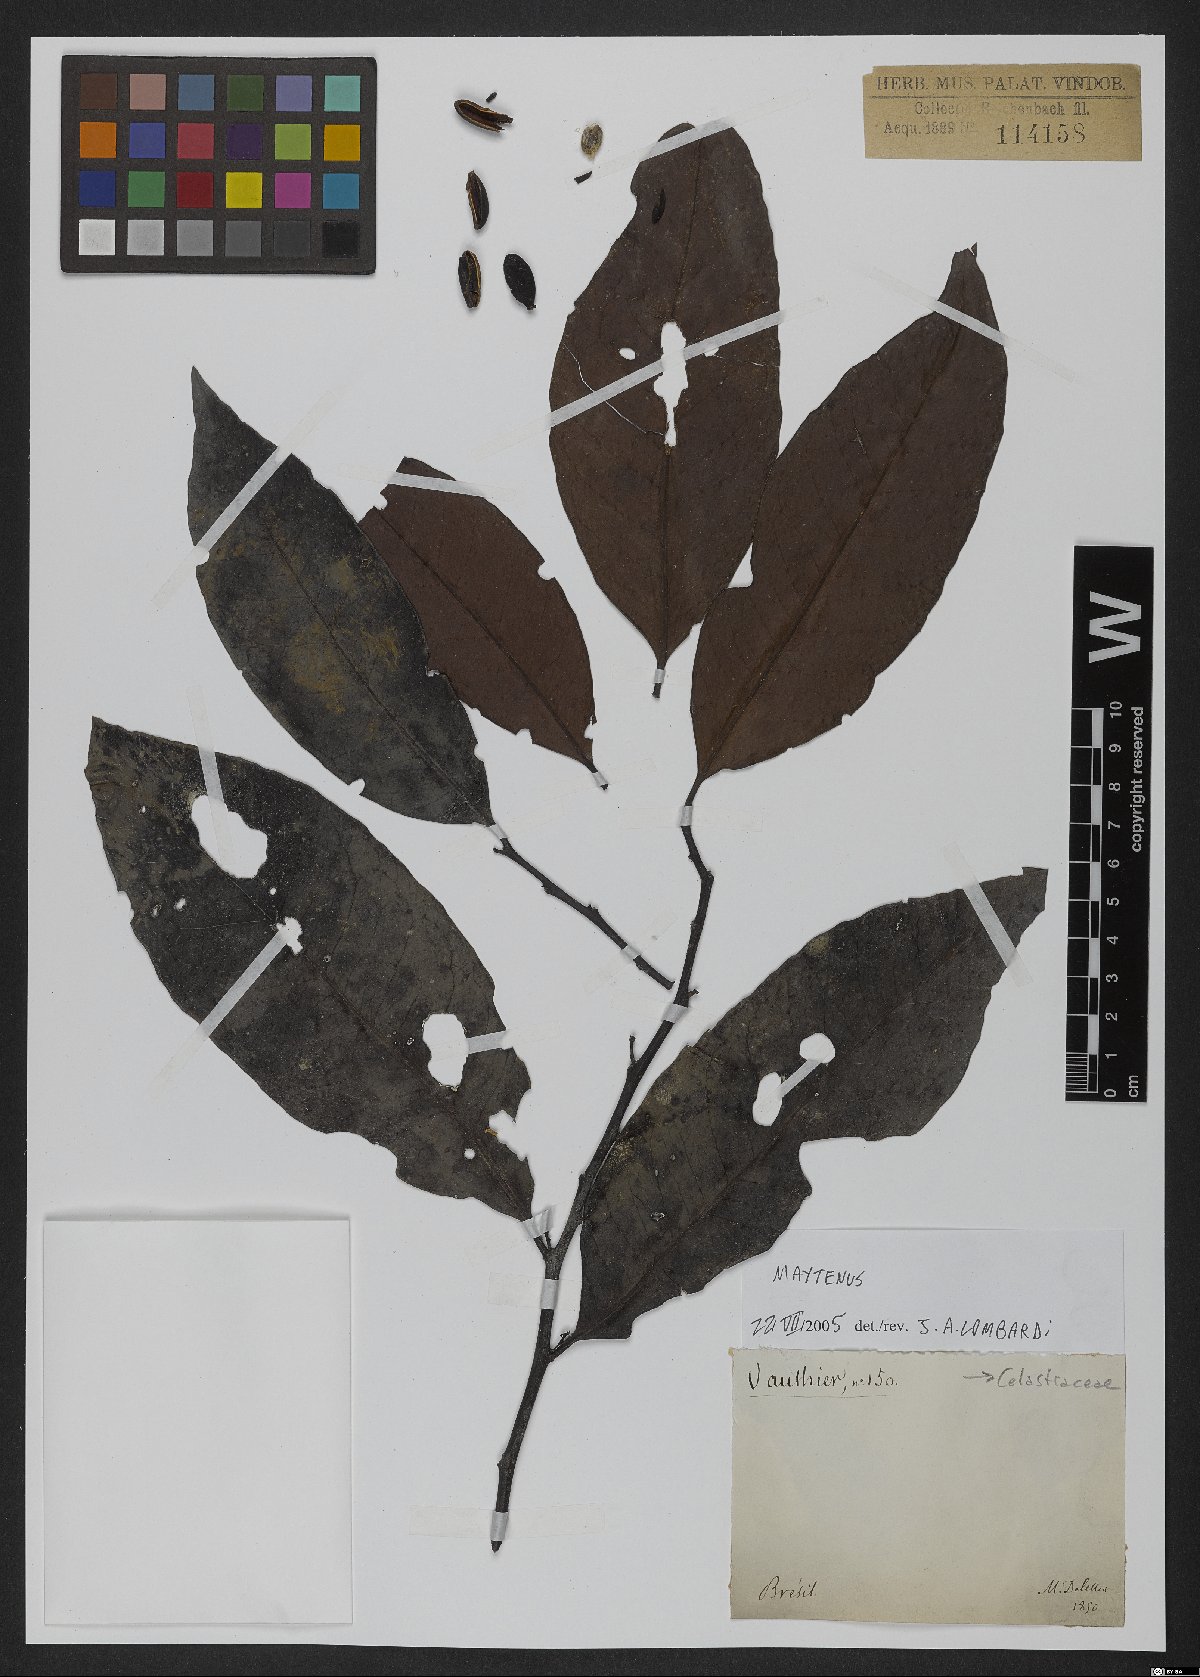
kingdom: Plantae
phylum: Tracheophyta
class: Magnoliopsida
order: Celastrales
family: Celastraceae
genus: Maytenus
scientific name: Maytenus
